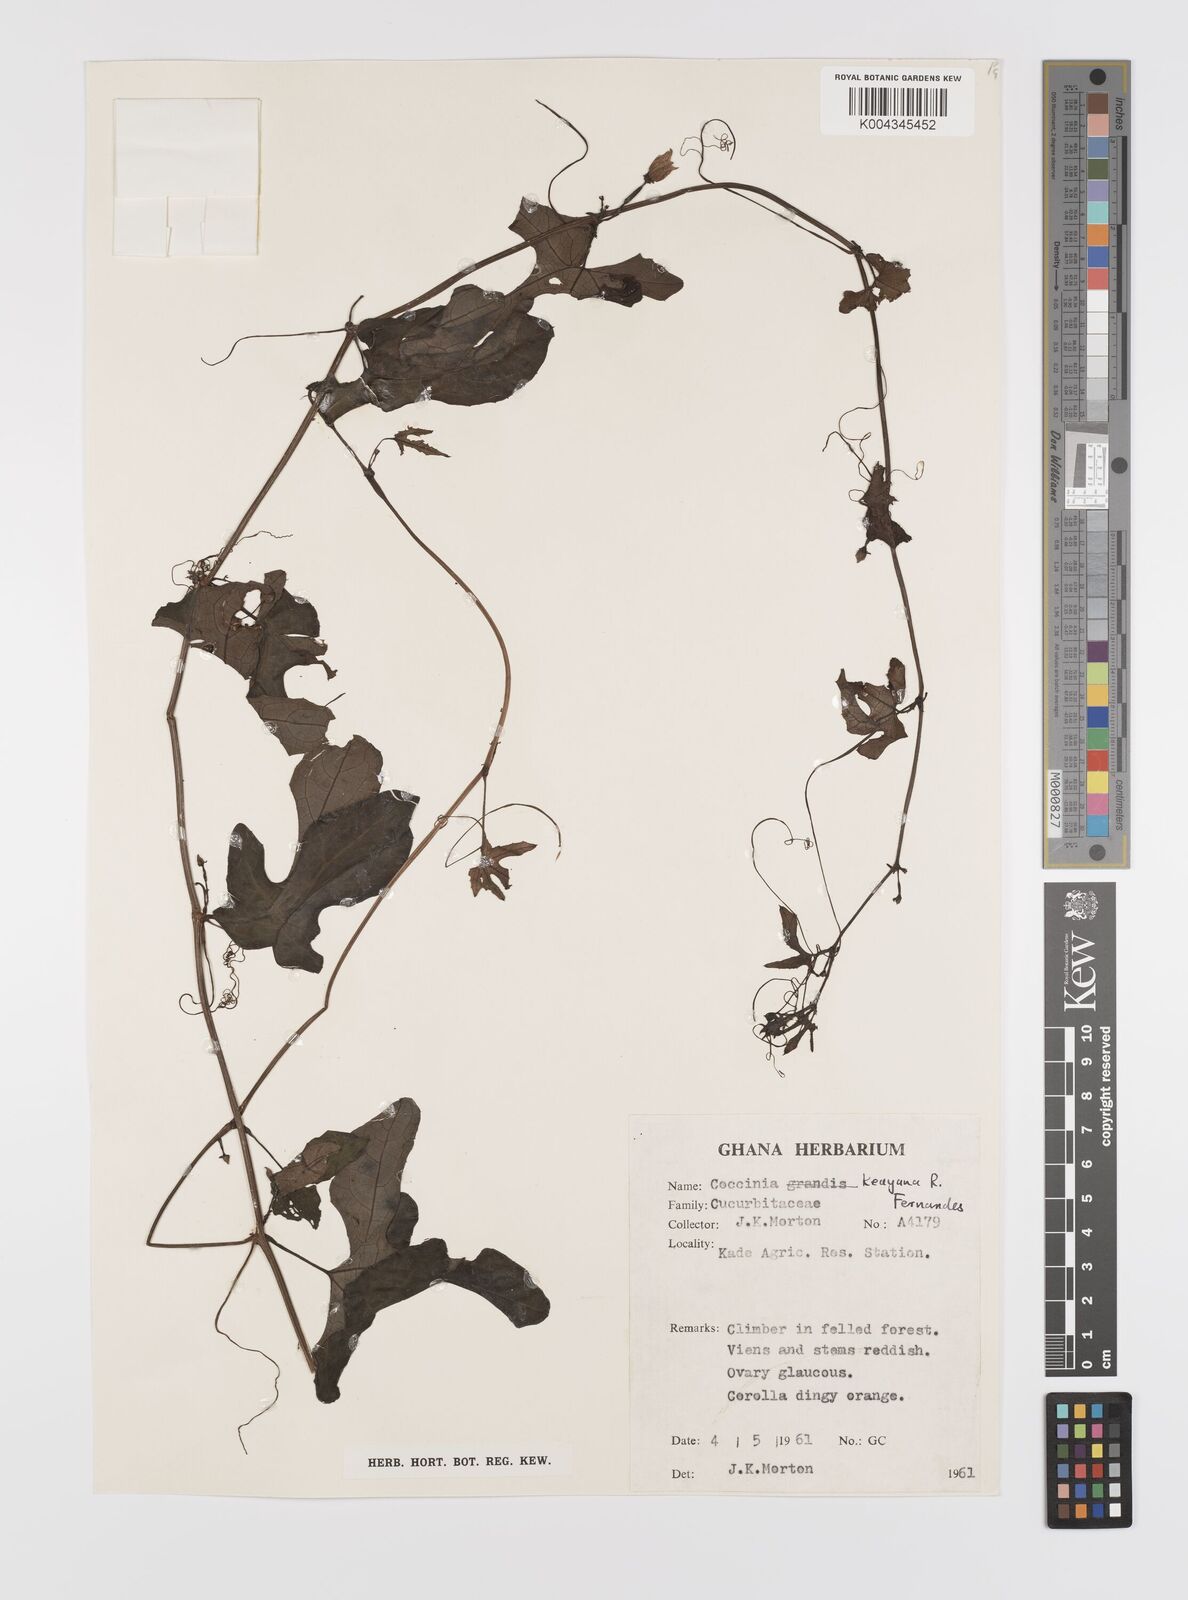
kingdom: Plantae
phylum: Tracheophyta
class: Magnoliopsida
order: Cucurbitales
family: Cucurbitaceae
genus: Coccinia
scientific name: Coccinia keayana
